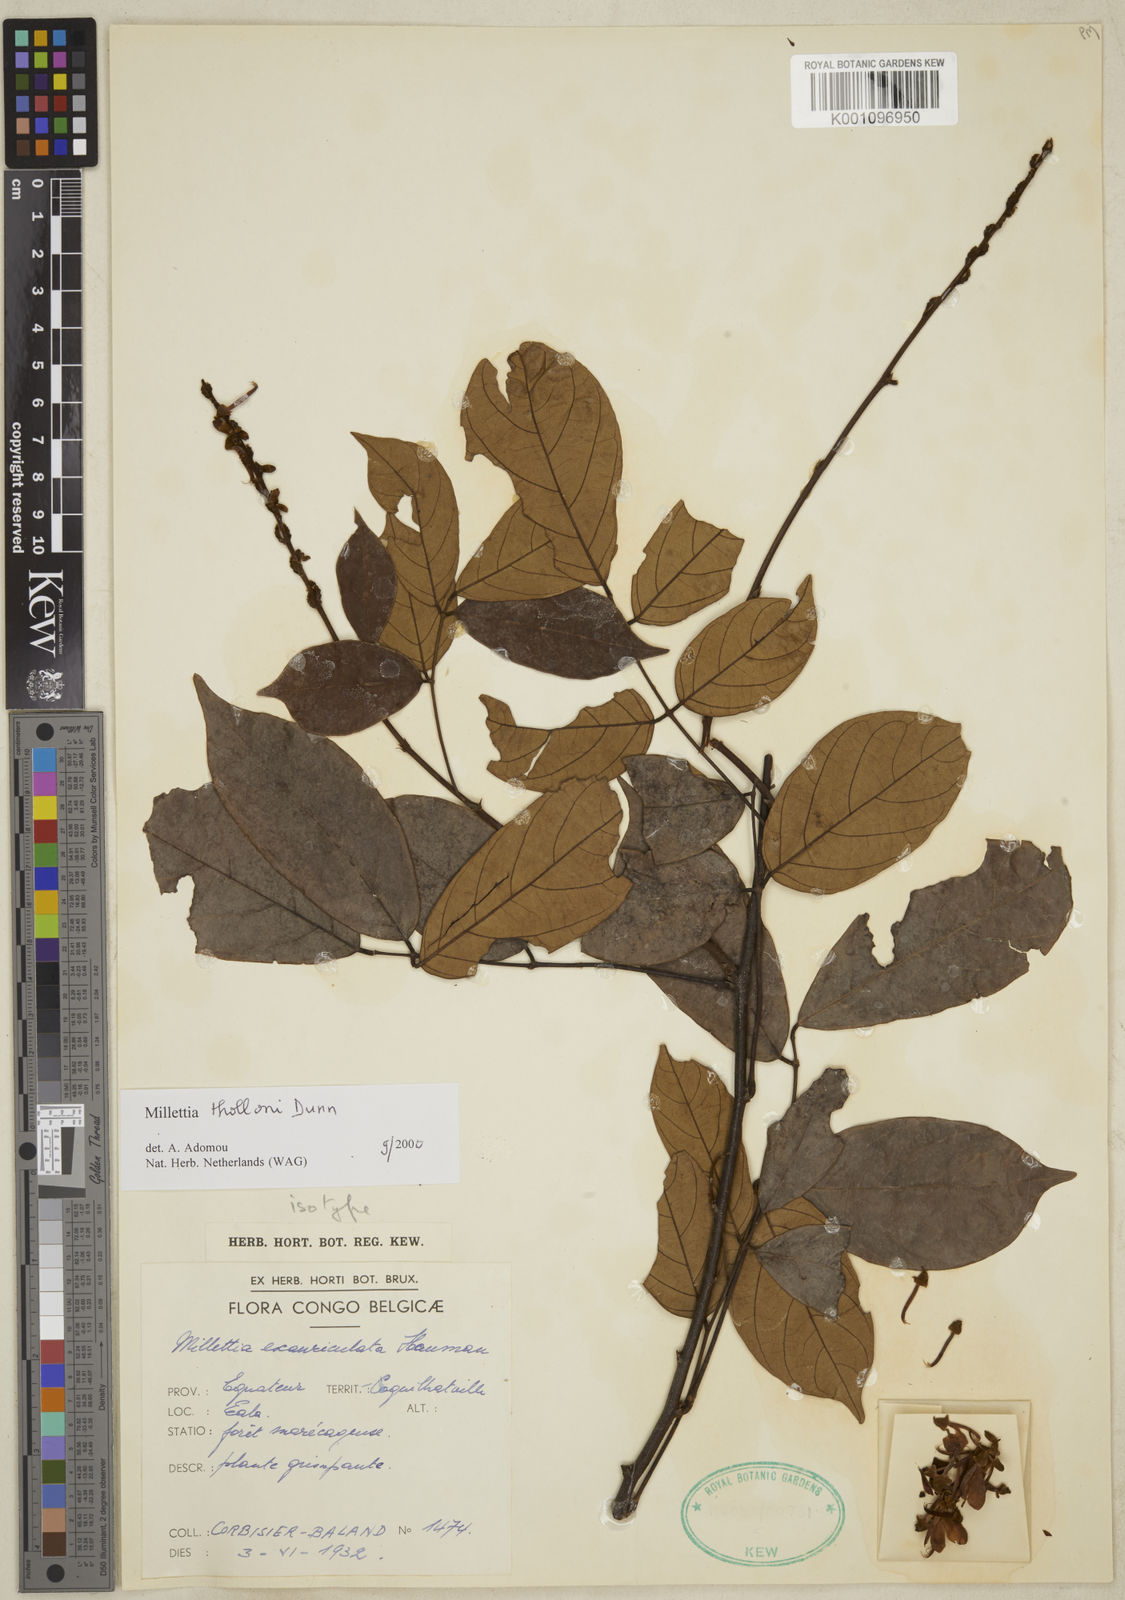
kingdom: Plantae
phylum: Tracheophyta
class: Magnoliopsida
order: Fabales
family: Fabaceae
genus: Millettia
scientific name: Millettia thollonii
